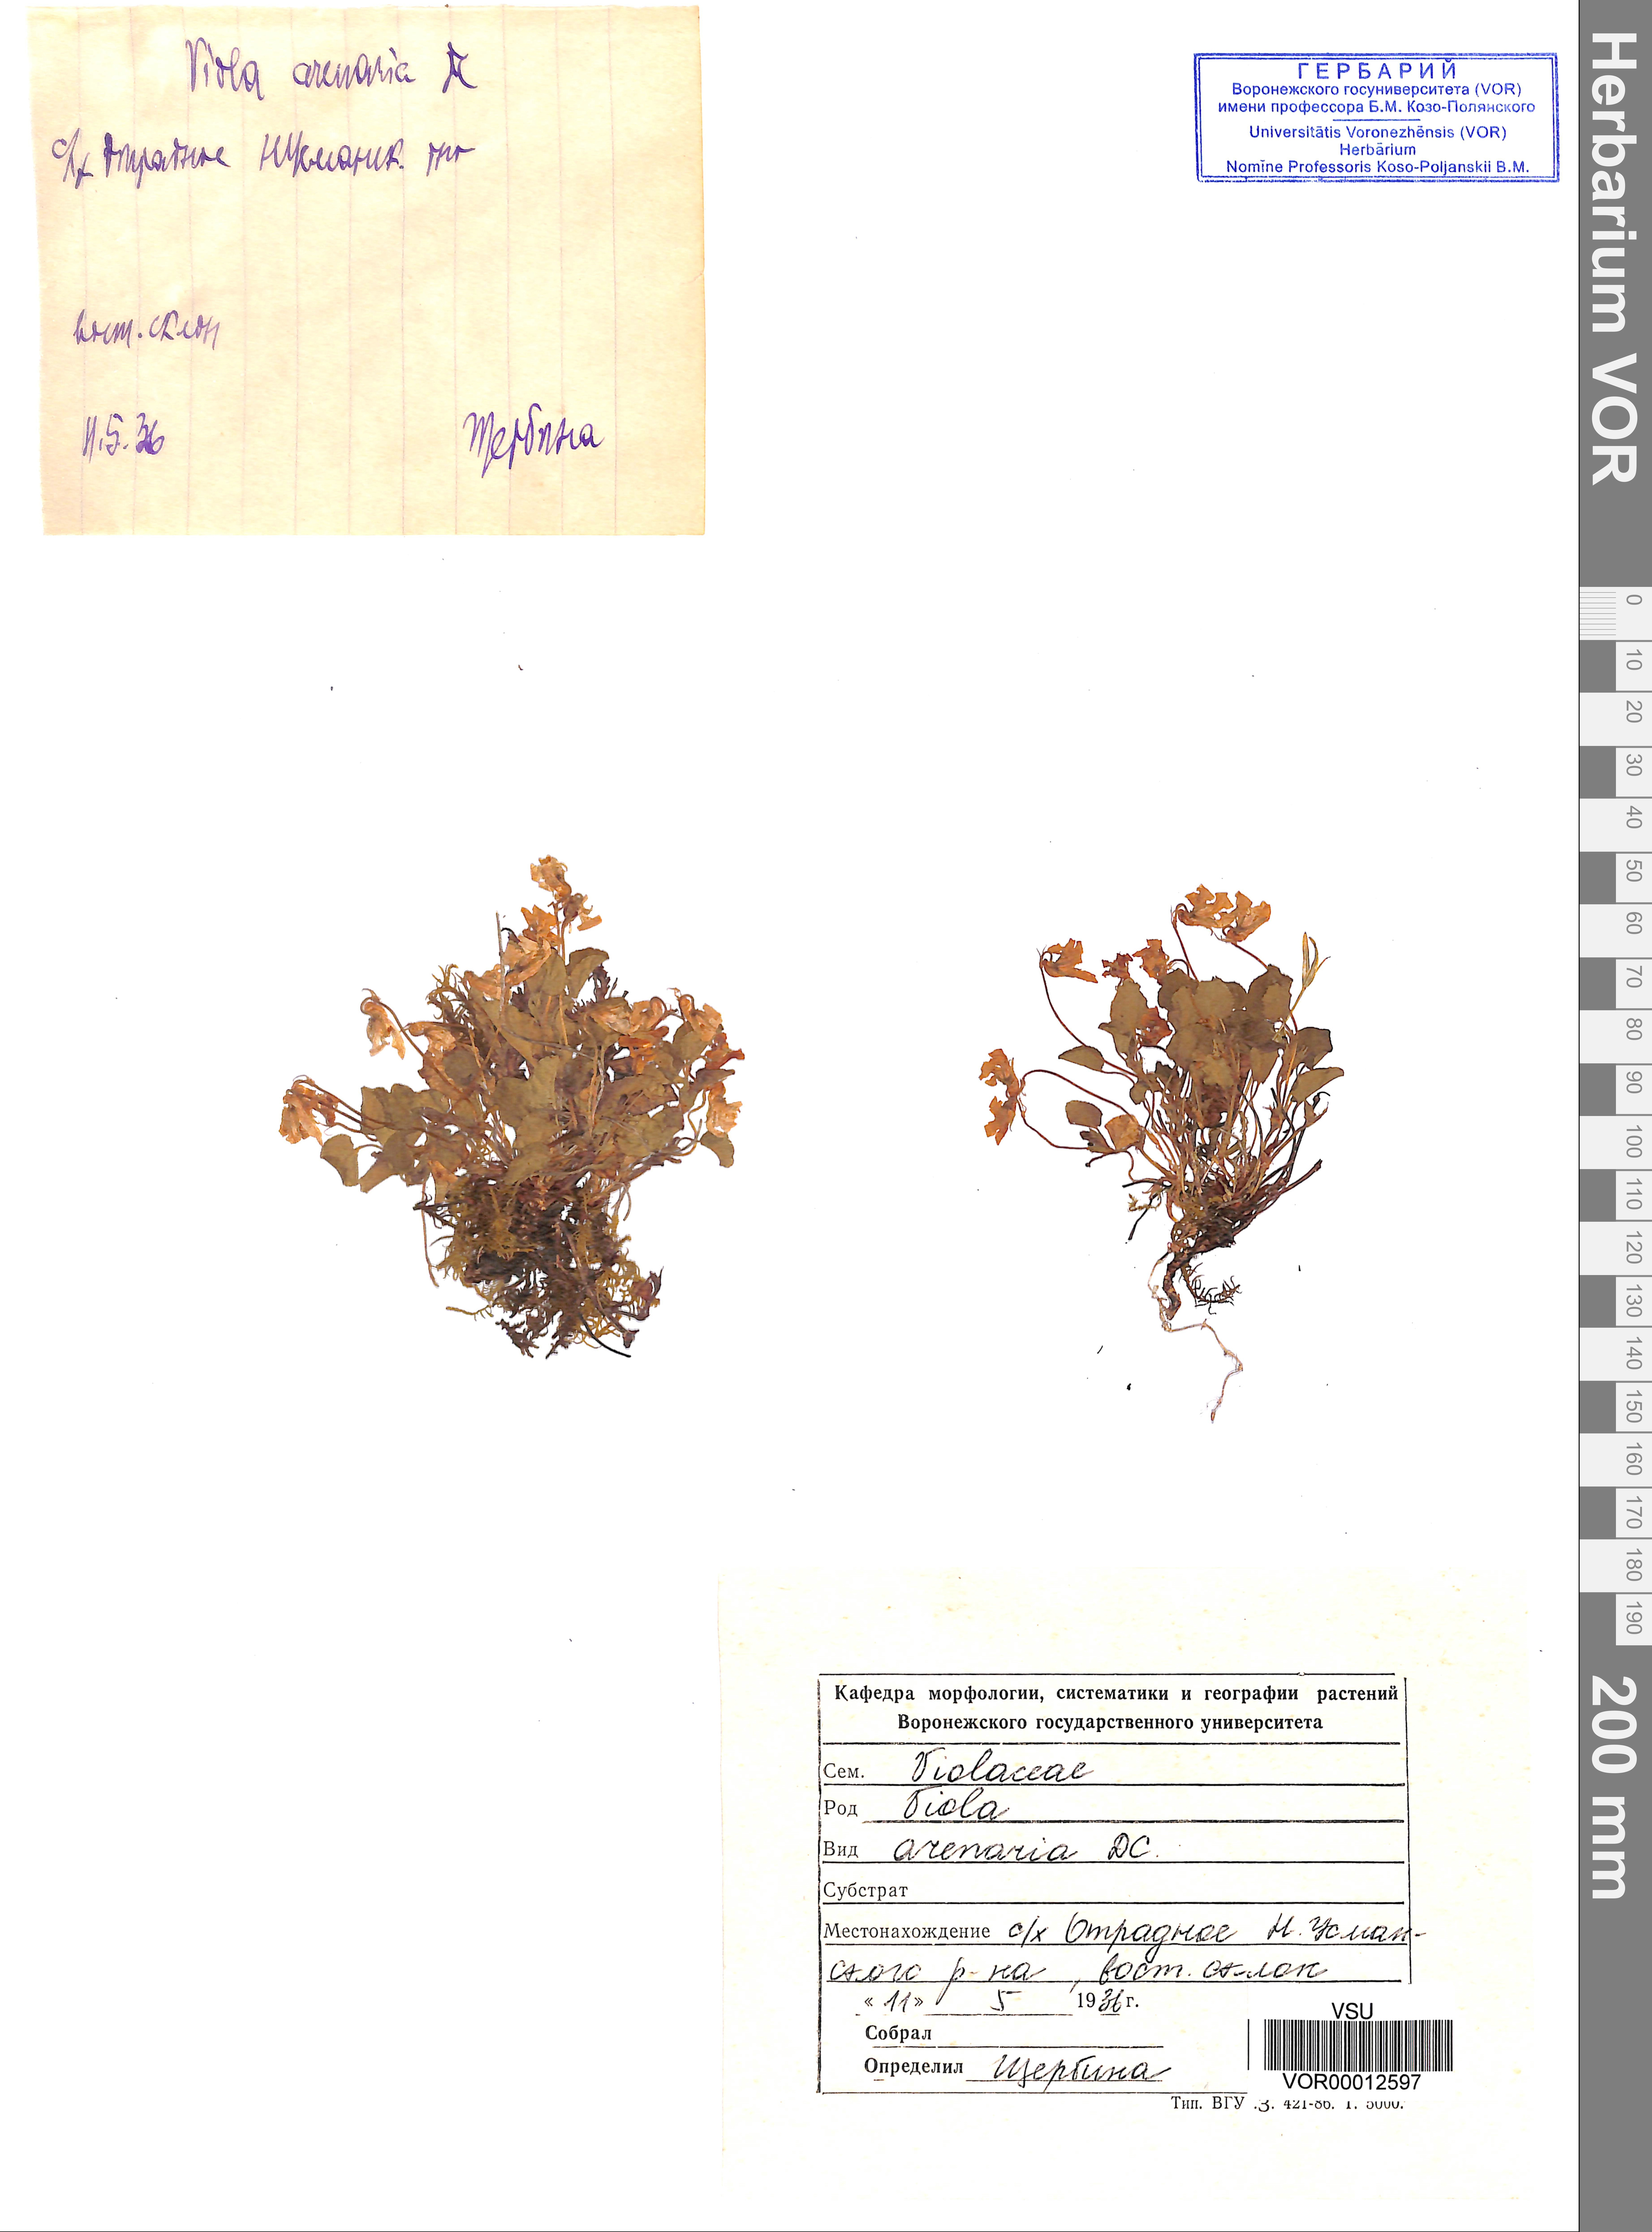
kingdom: Plantae
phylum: Tracheophyta
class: Magnoliopsida
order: Malpighiales
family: Violaceae
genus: Viola
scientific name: Viola rupestris
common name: Teesdale violet
